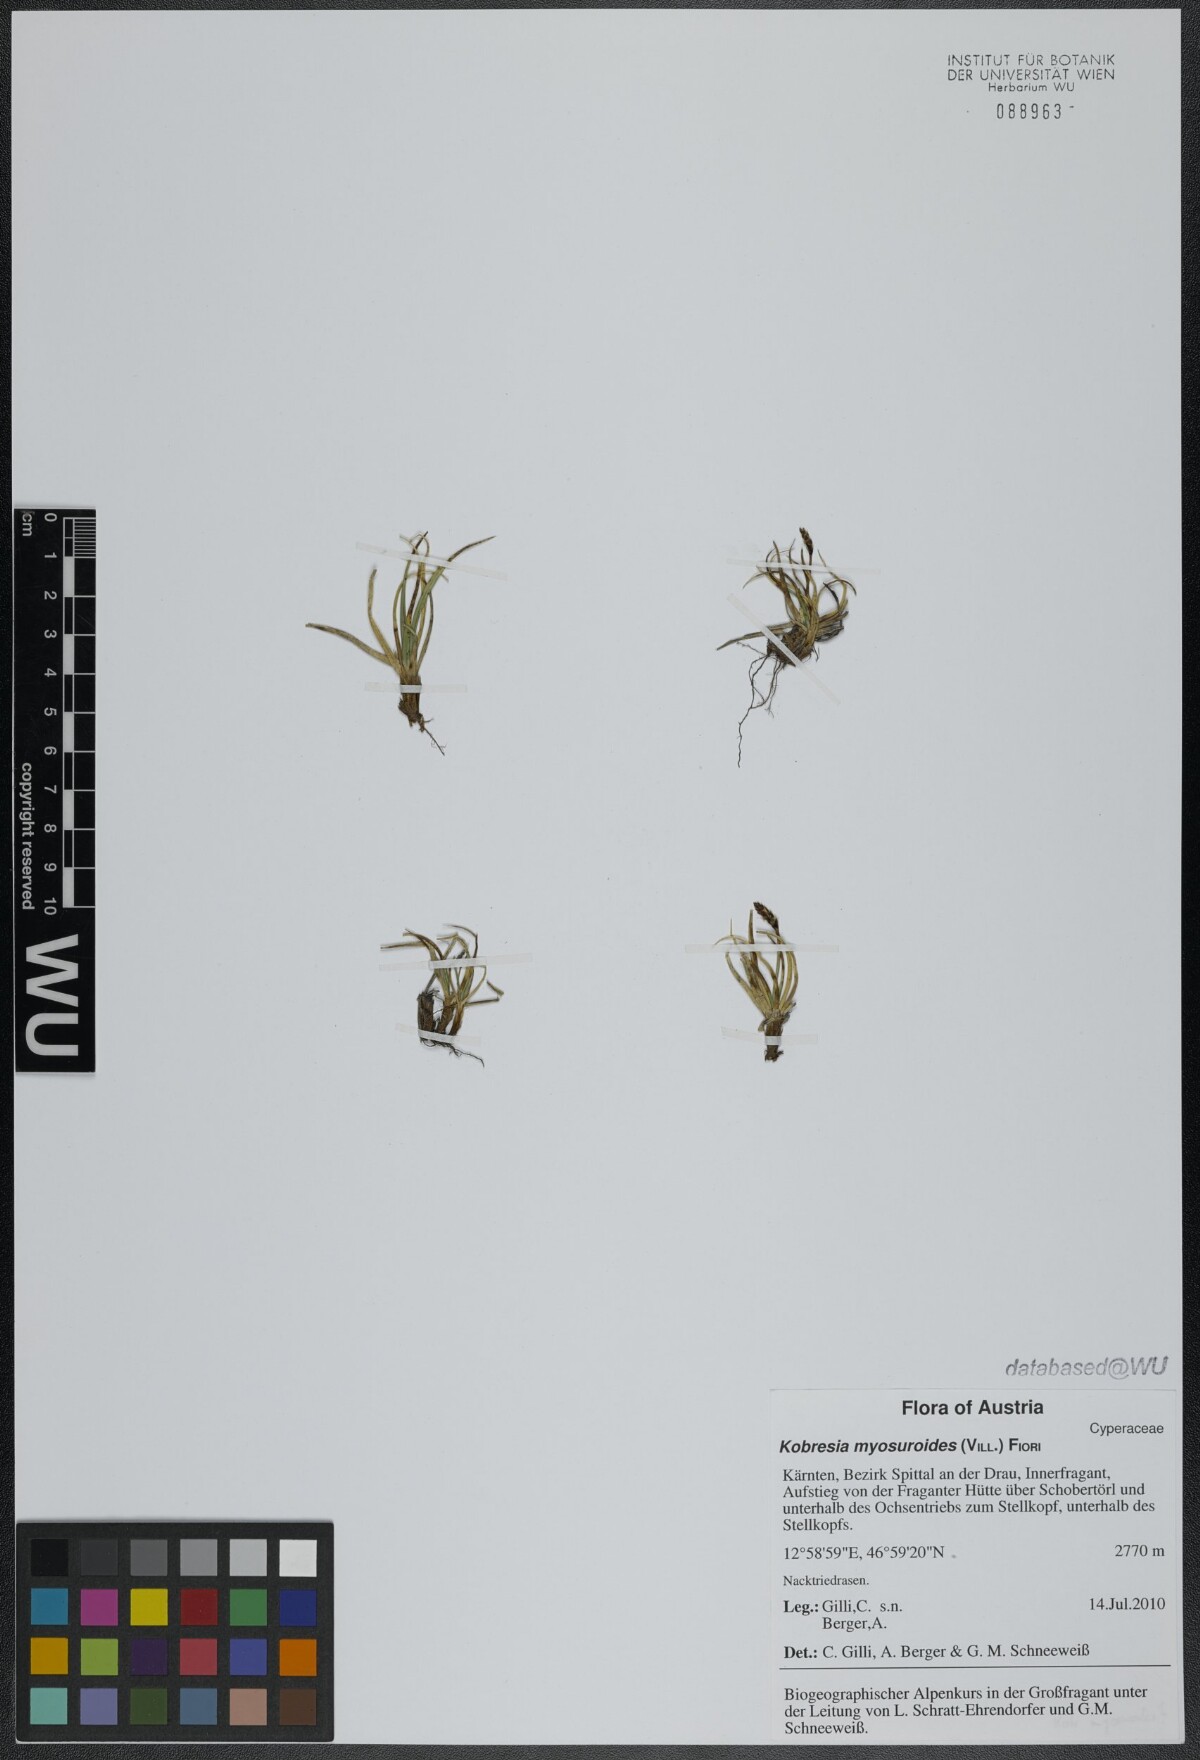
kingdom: Plantae
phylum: Tracheophyta
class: Liliopsida
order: Poales
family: Cyperaceae
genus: Carex
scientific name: Carex myosuroides
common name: Bellard's bog sedge
